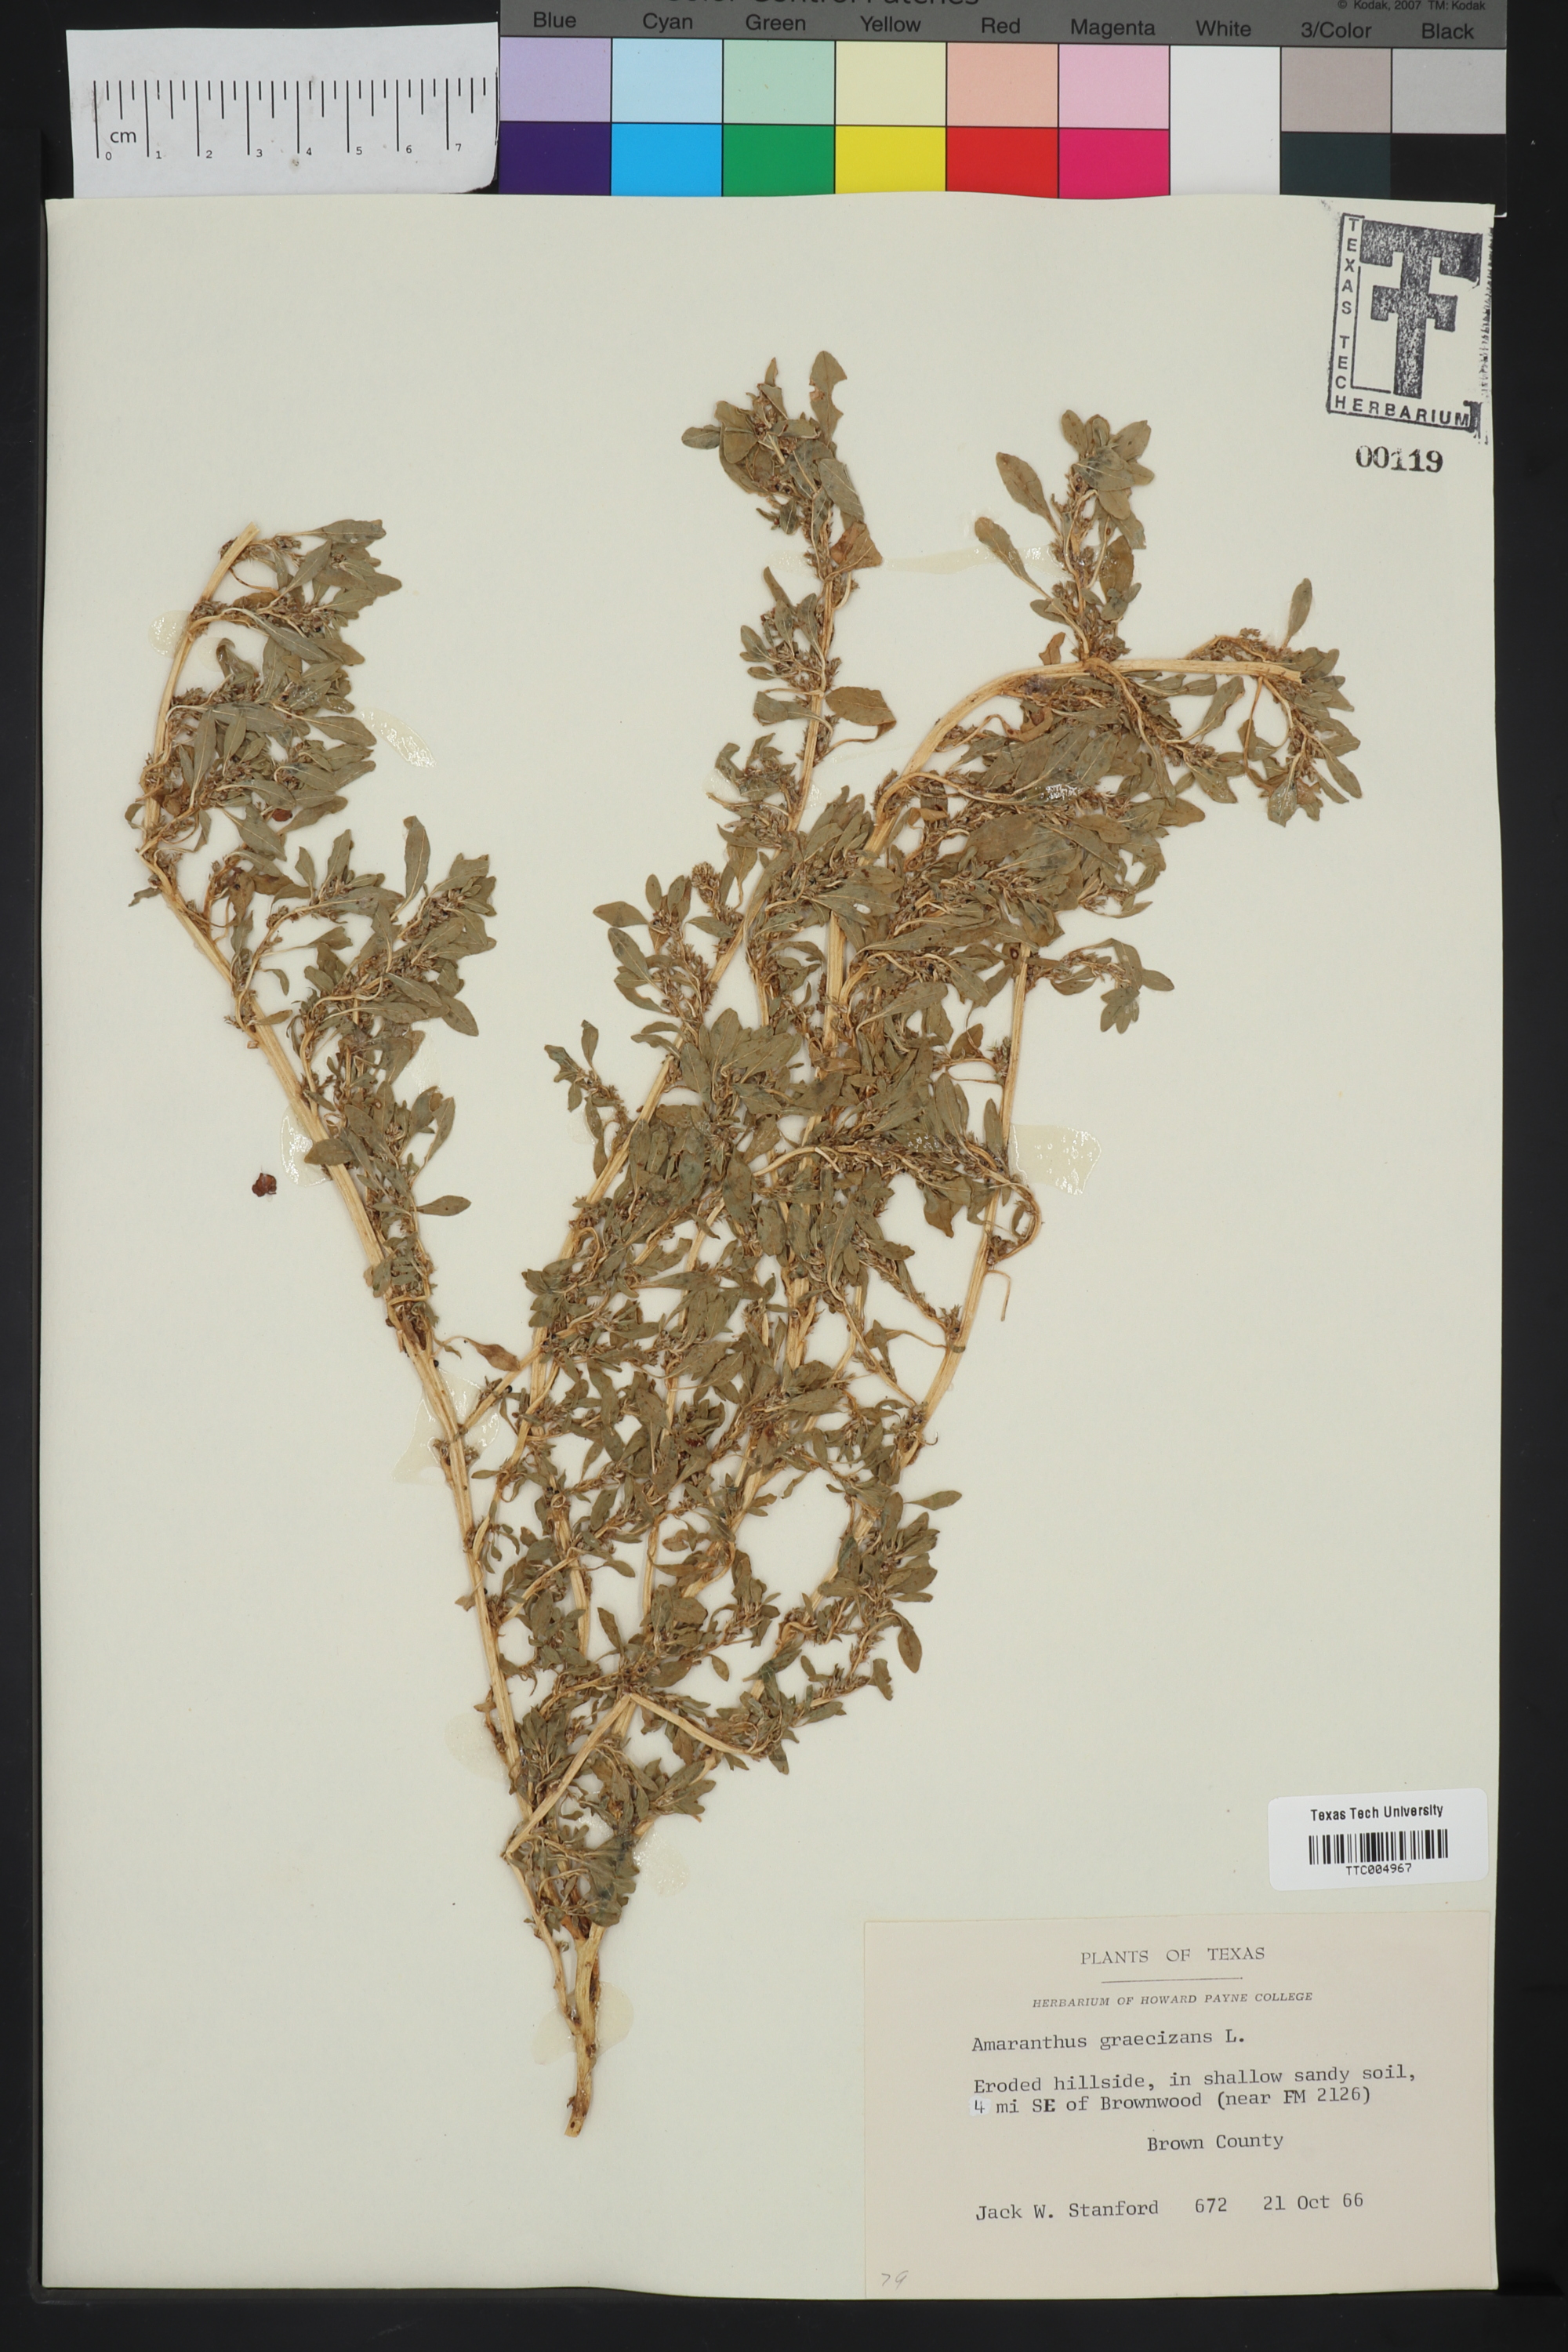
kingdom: Plantae
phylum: Tracheophyta
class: Magnoliopsida
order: Caryophyllales
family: Amaranthaceae
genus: Amaranthus
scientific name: Amaranthus graecizans
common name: Mediterranean amaranth
